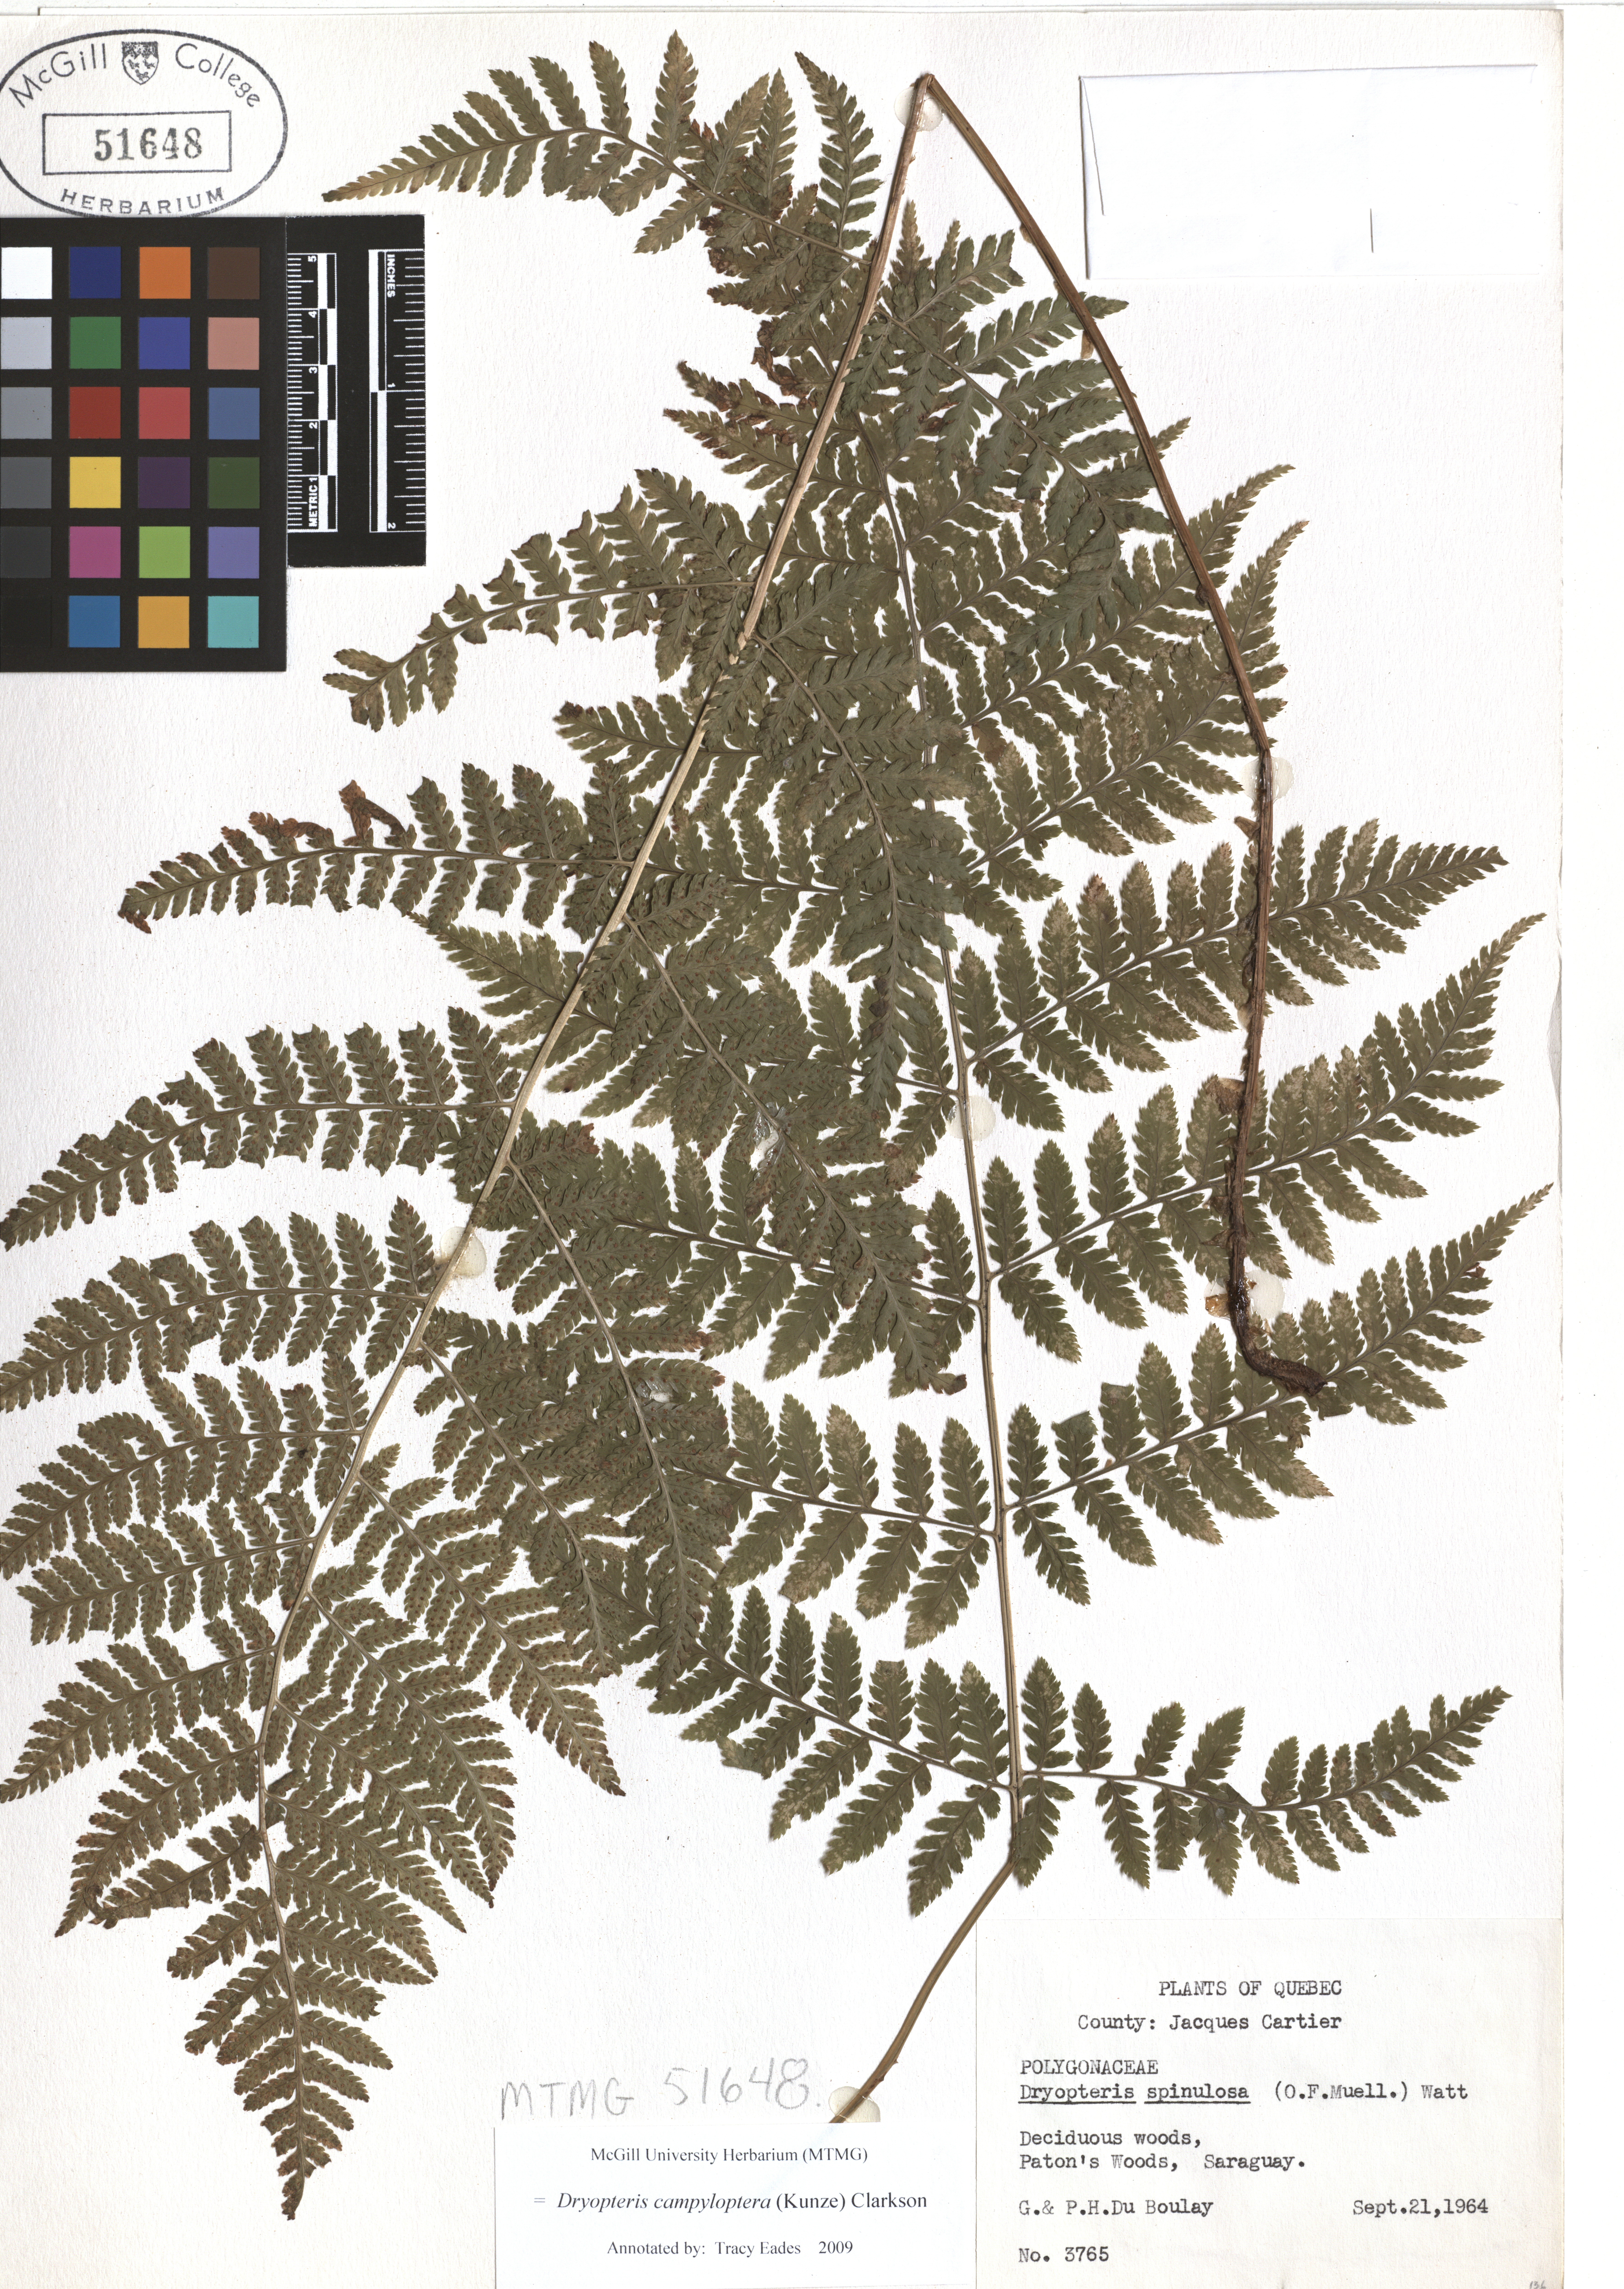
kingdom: Plantae
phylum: Tracheophyta
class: Polypodiopsida
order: Polypodiales
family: Dryopteridaceae
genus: Dryopteris
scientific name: Dryopteris campyloptera
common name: Mountain wood fern
